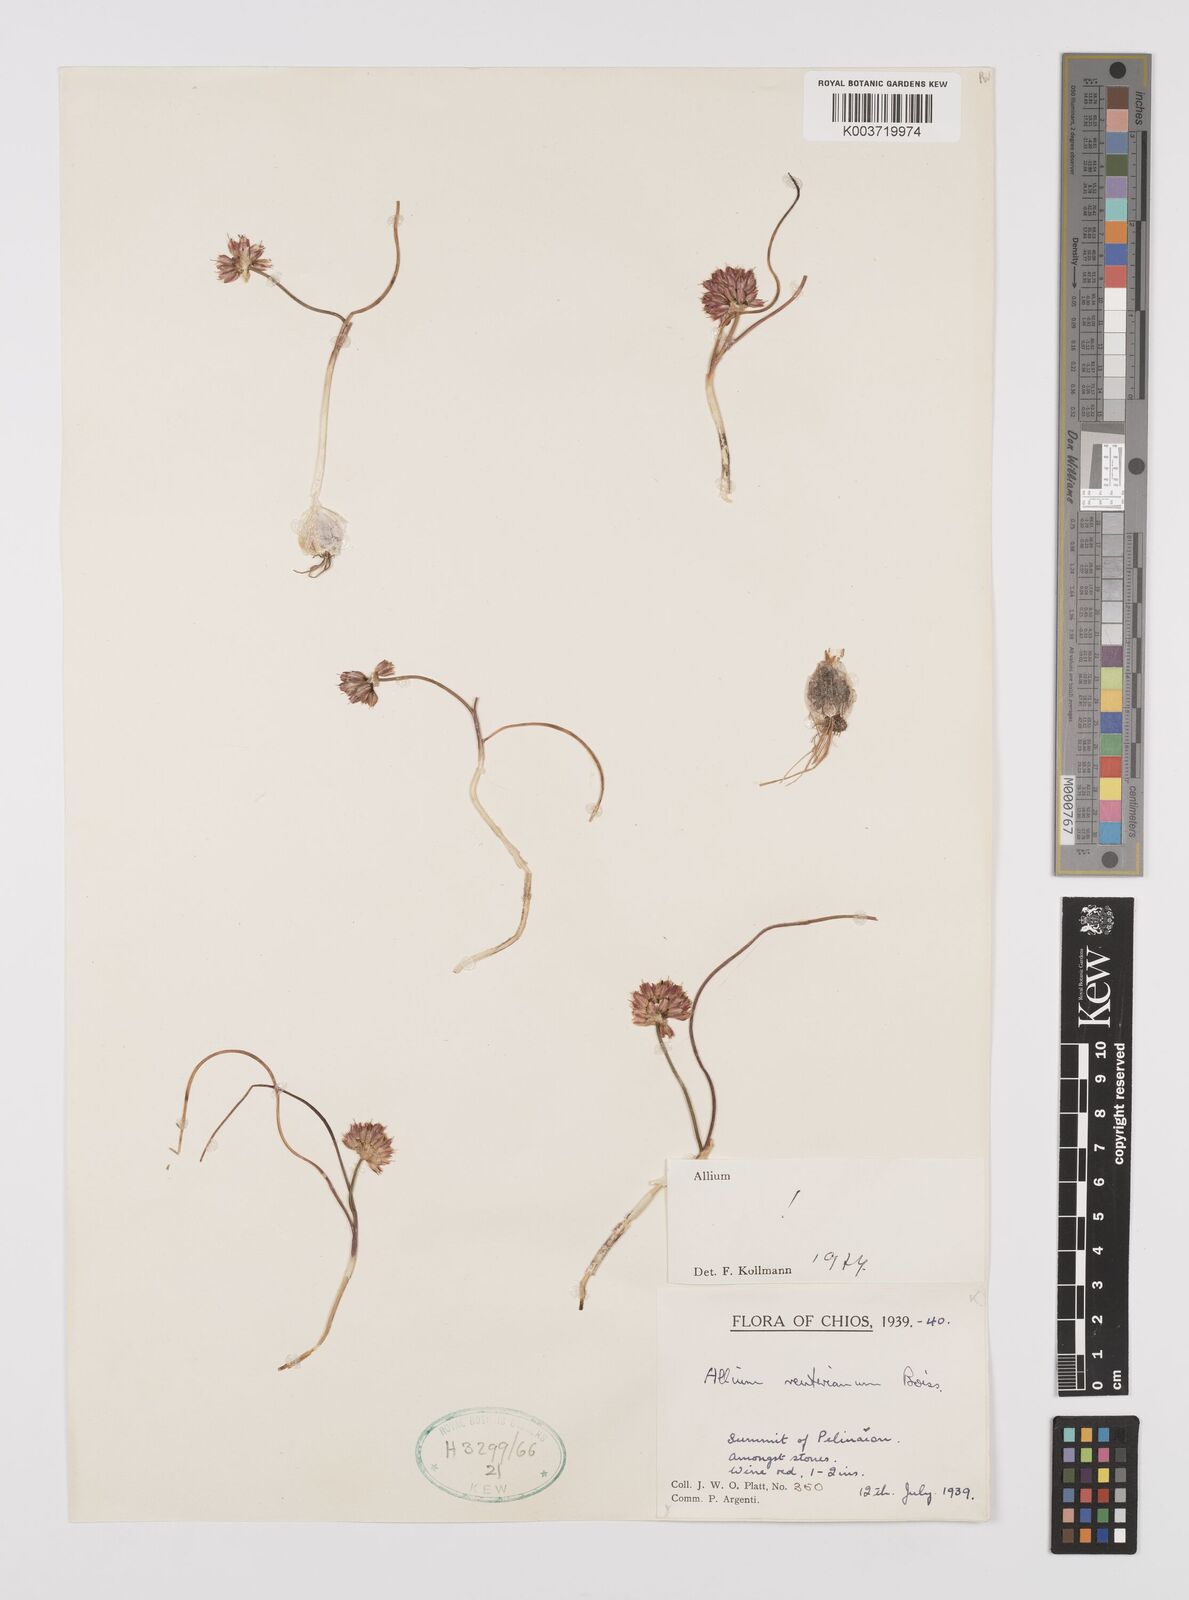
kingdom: Plantae
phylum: Tracheophyta
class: Liliopsida
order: Asparagales
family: Amaryllidaceae
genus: Allium
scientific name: Allium reuterianum
